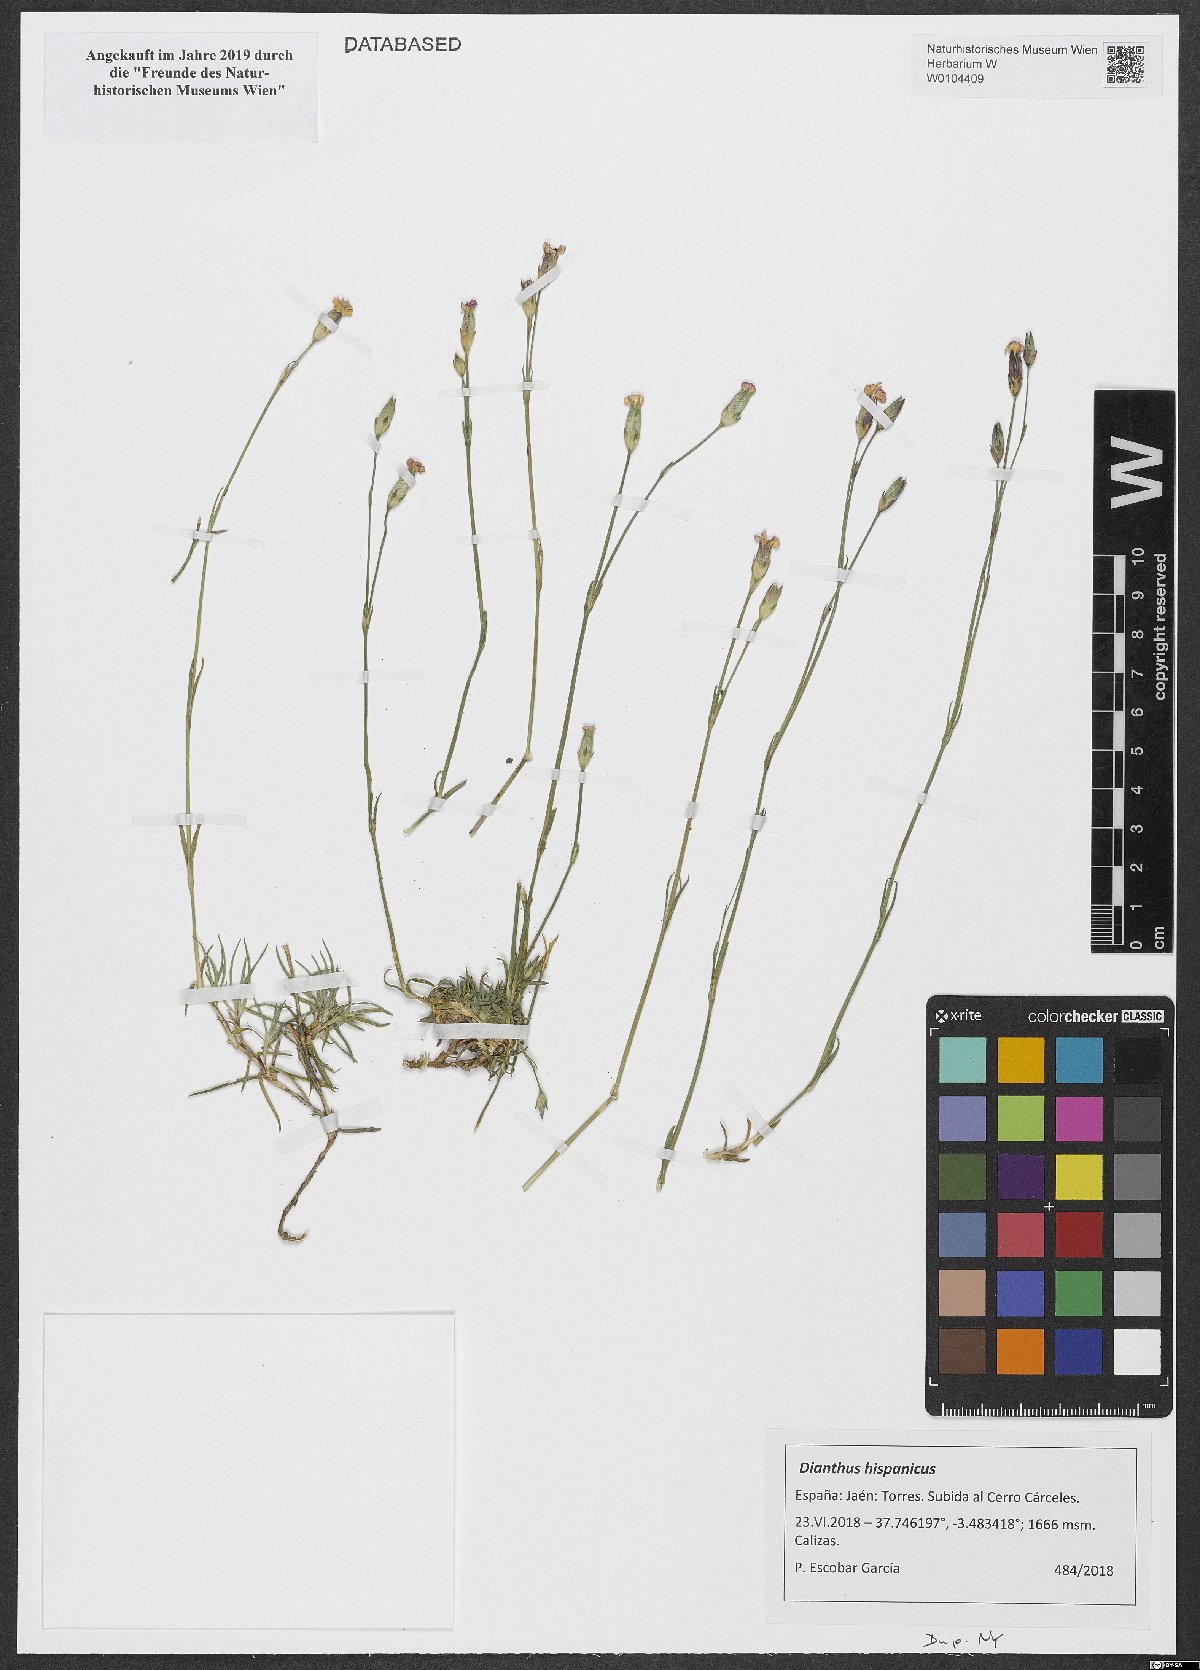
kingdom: Plantae
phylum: Tracheophyta
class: Magnoliopsida
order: Caryophyllales
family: Caryophyllaceae
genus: Dianthus
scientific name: Dianthus pungens
